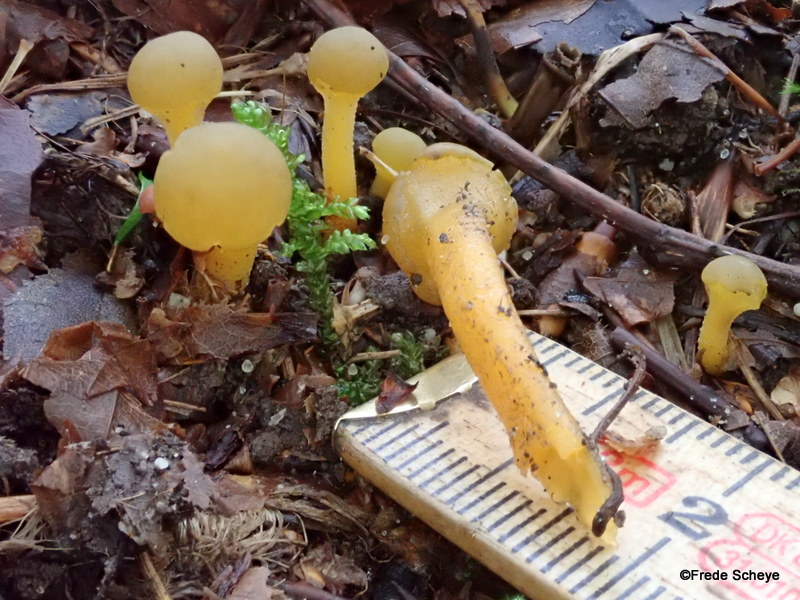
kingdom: Fungi
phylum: Ascomycota
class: Leotiomycetes
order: Leotiales
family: Leotiaceae
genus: Leotia
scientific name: Leotia lubrica
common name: ravsvamp
